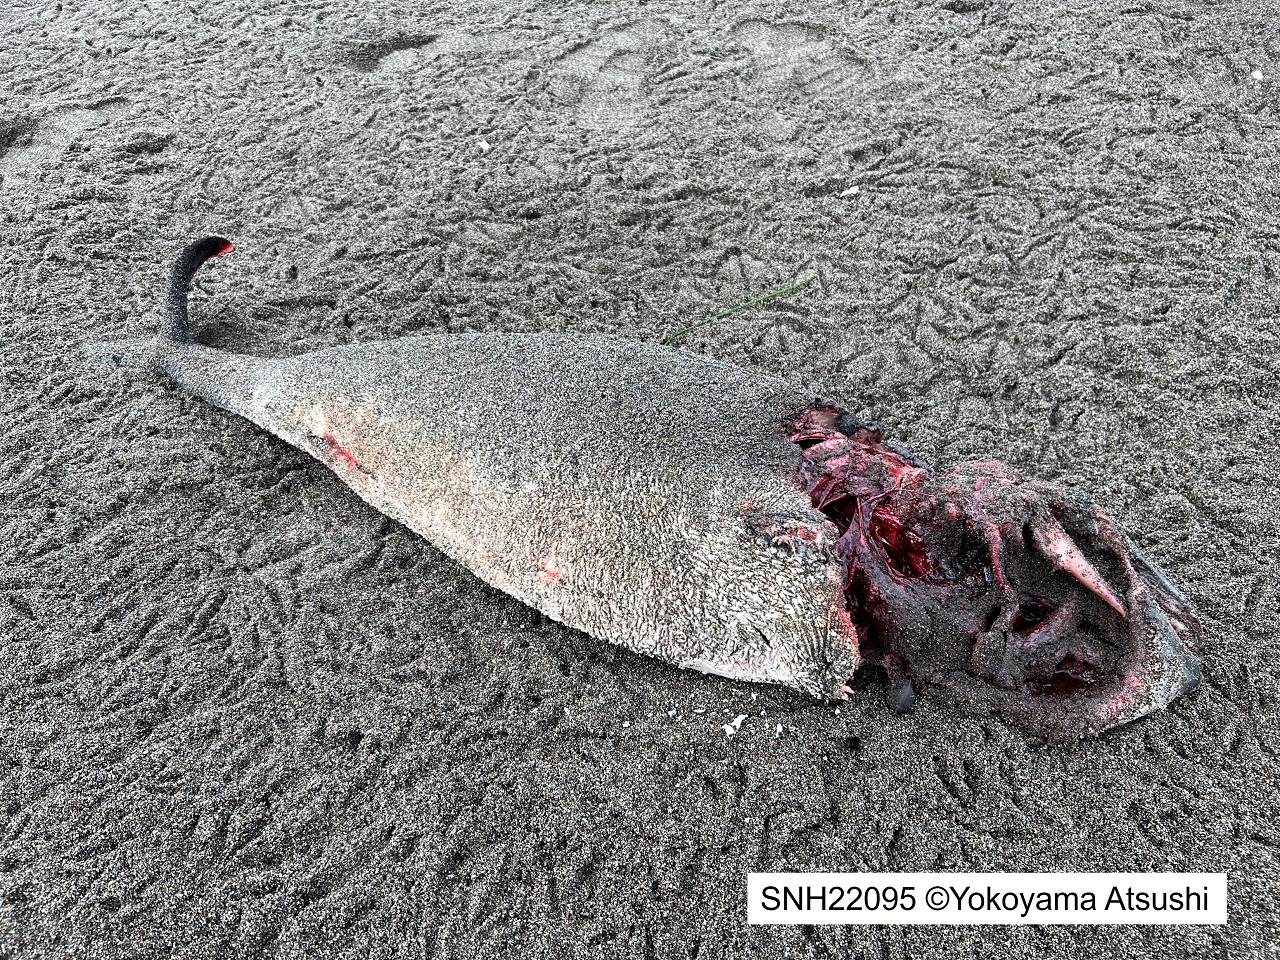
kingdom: Animalia
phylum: Chordata
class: Mammalia
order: Cetacea
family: Phocoenidae
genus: Phocoena
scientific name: Phocoena phocoena
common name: Harbour porpoise
